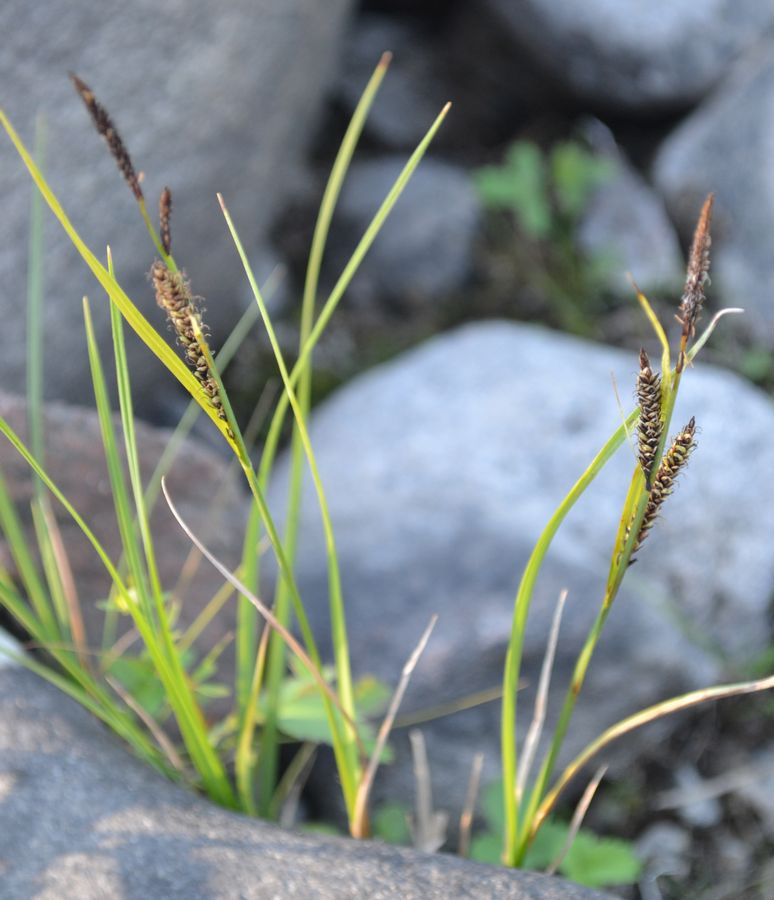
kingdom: Plantae
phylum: Tracheophyta
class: Liliopsida
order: Poales
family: Cyperaceae
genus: Carex
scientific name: Carex nigra
